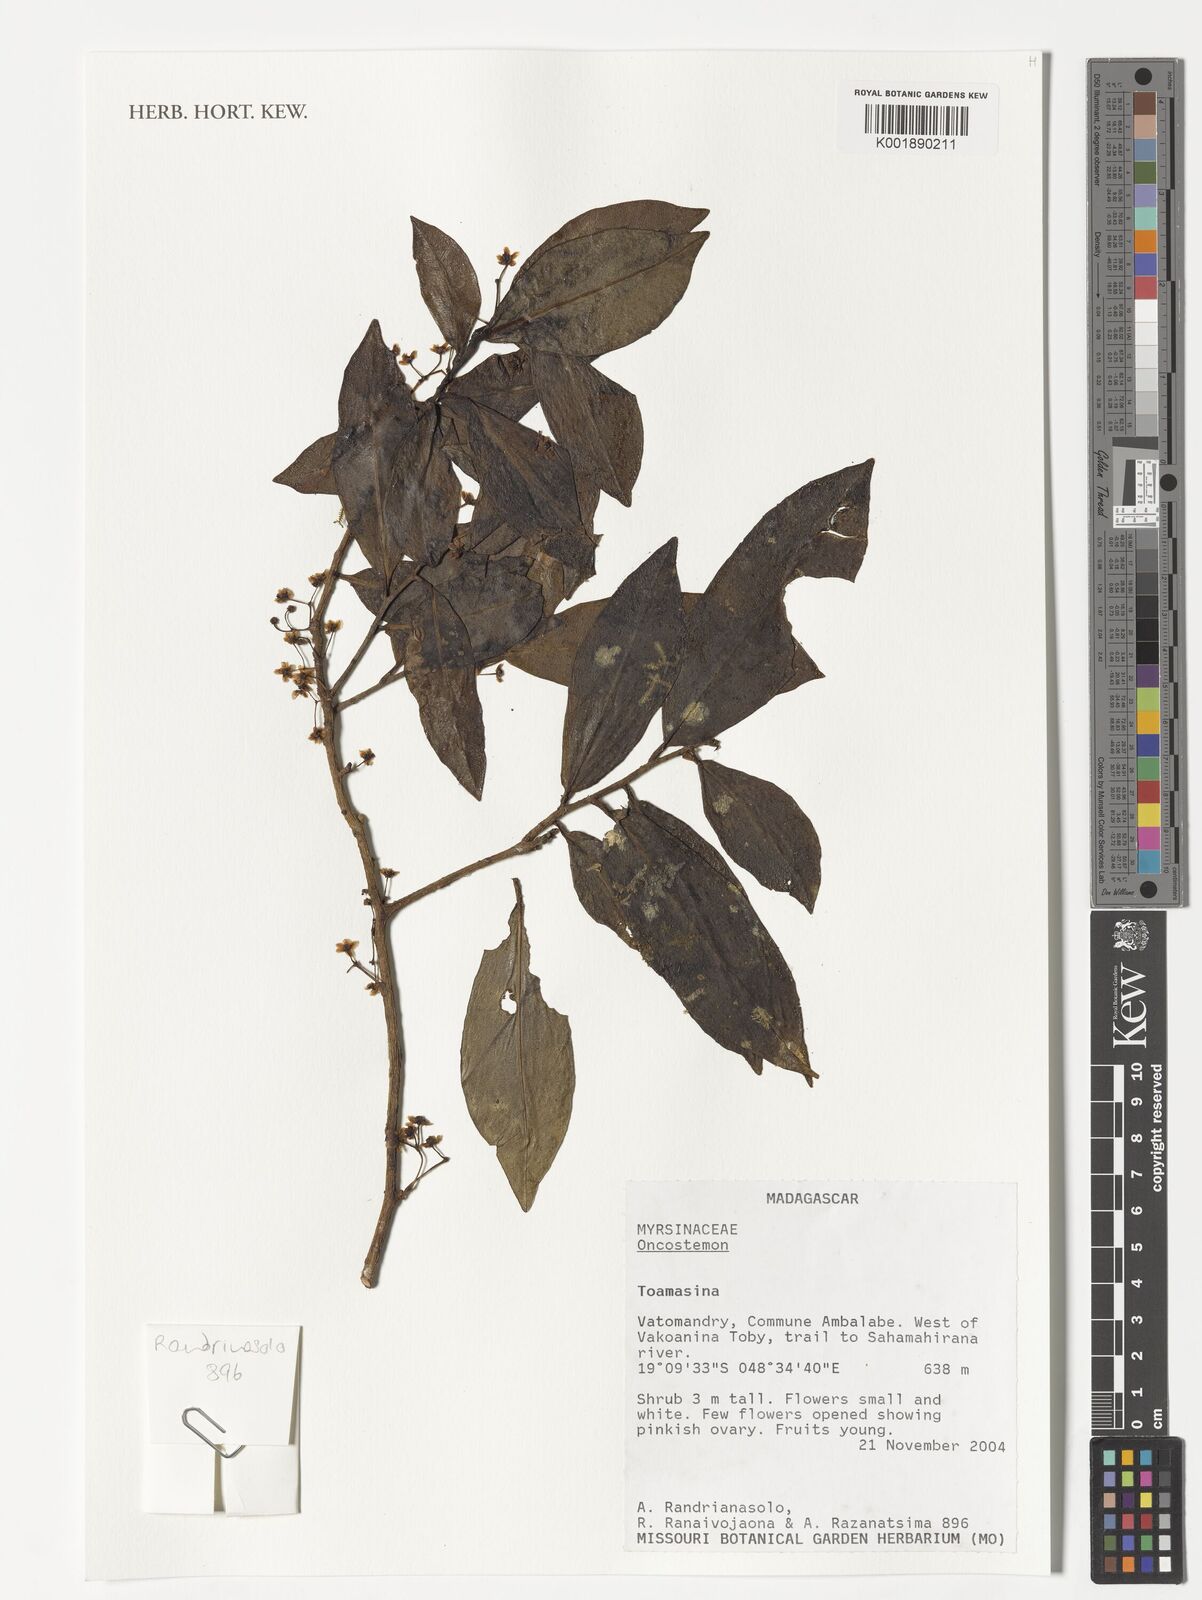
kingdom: Plantae
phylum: Tracheophyta
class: Magnoliopsida
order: Ericales
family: Primulaceae
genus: Oncostemum
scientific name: Oncostemum
